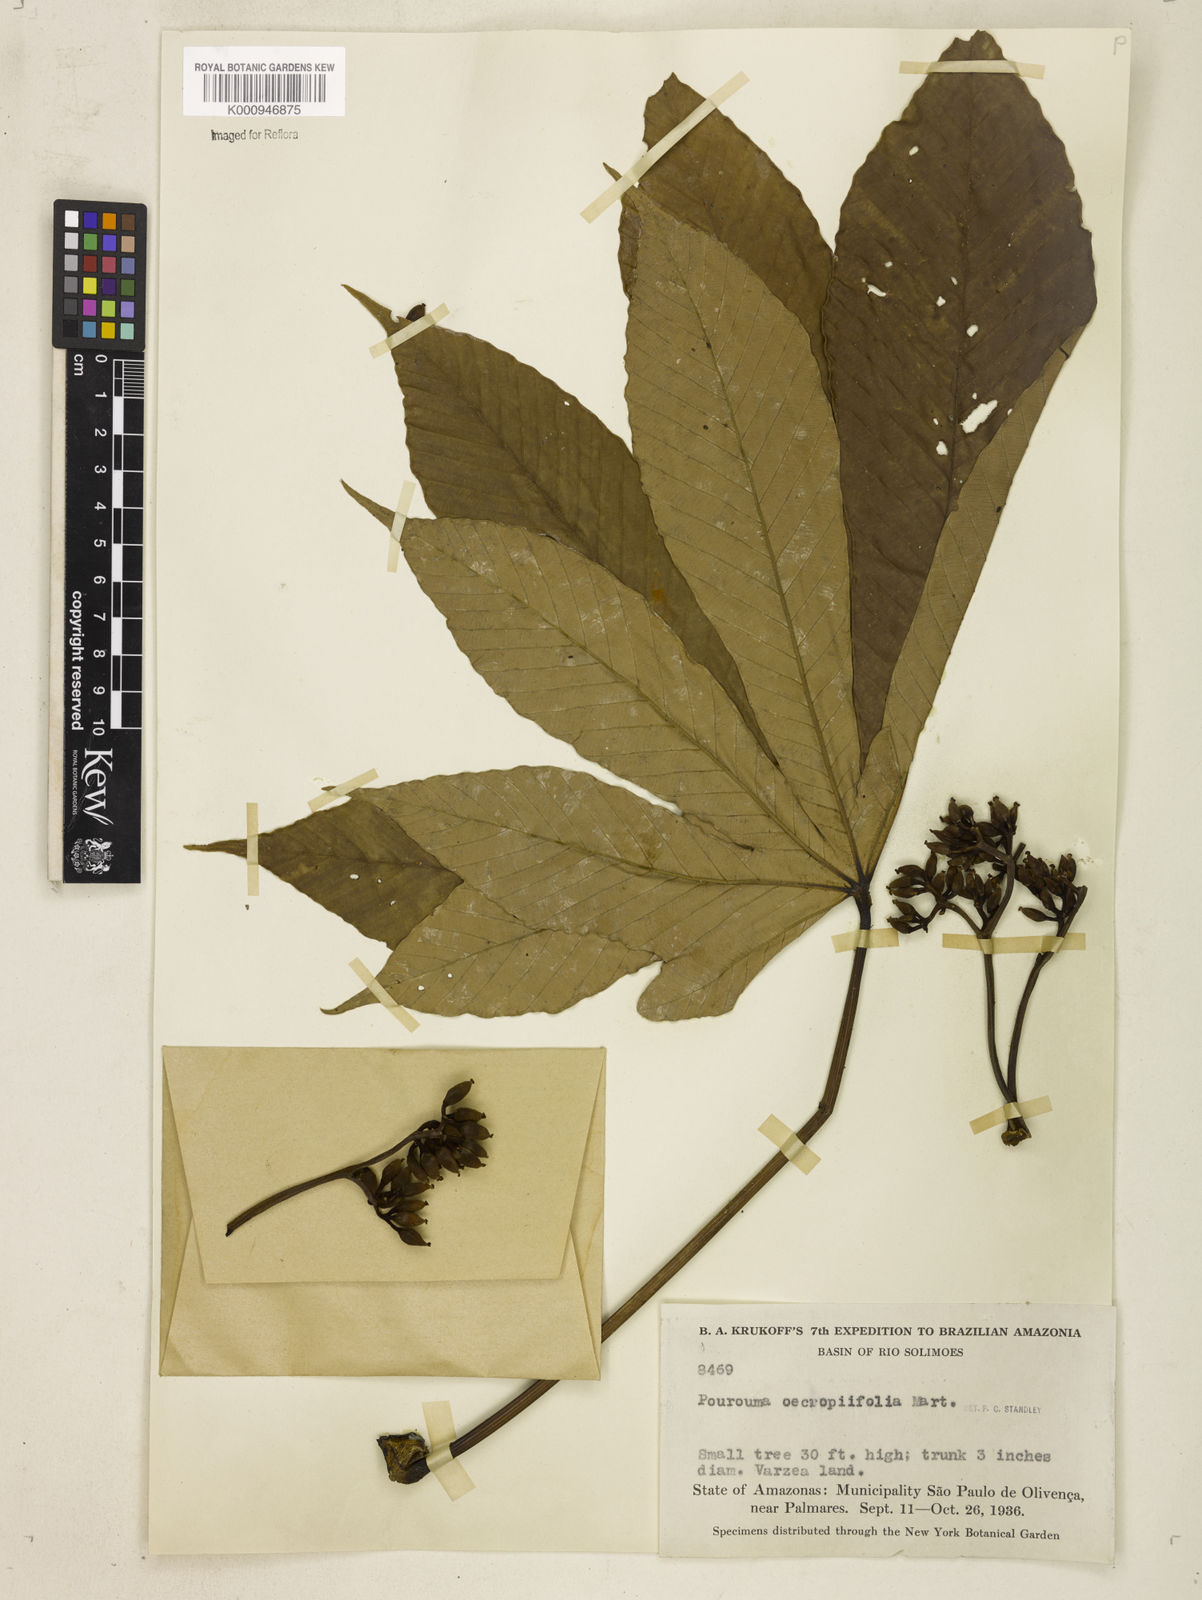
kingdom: Plantae
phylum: Tracheophyta
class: Magnoliopsida
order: Rosales
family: Urticaceae
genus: Pourouma
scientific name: Pourouma cecropiifolia
